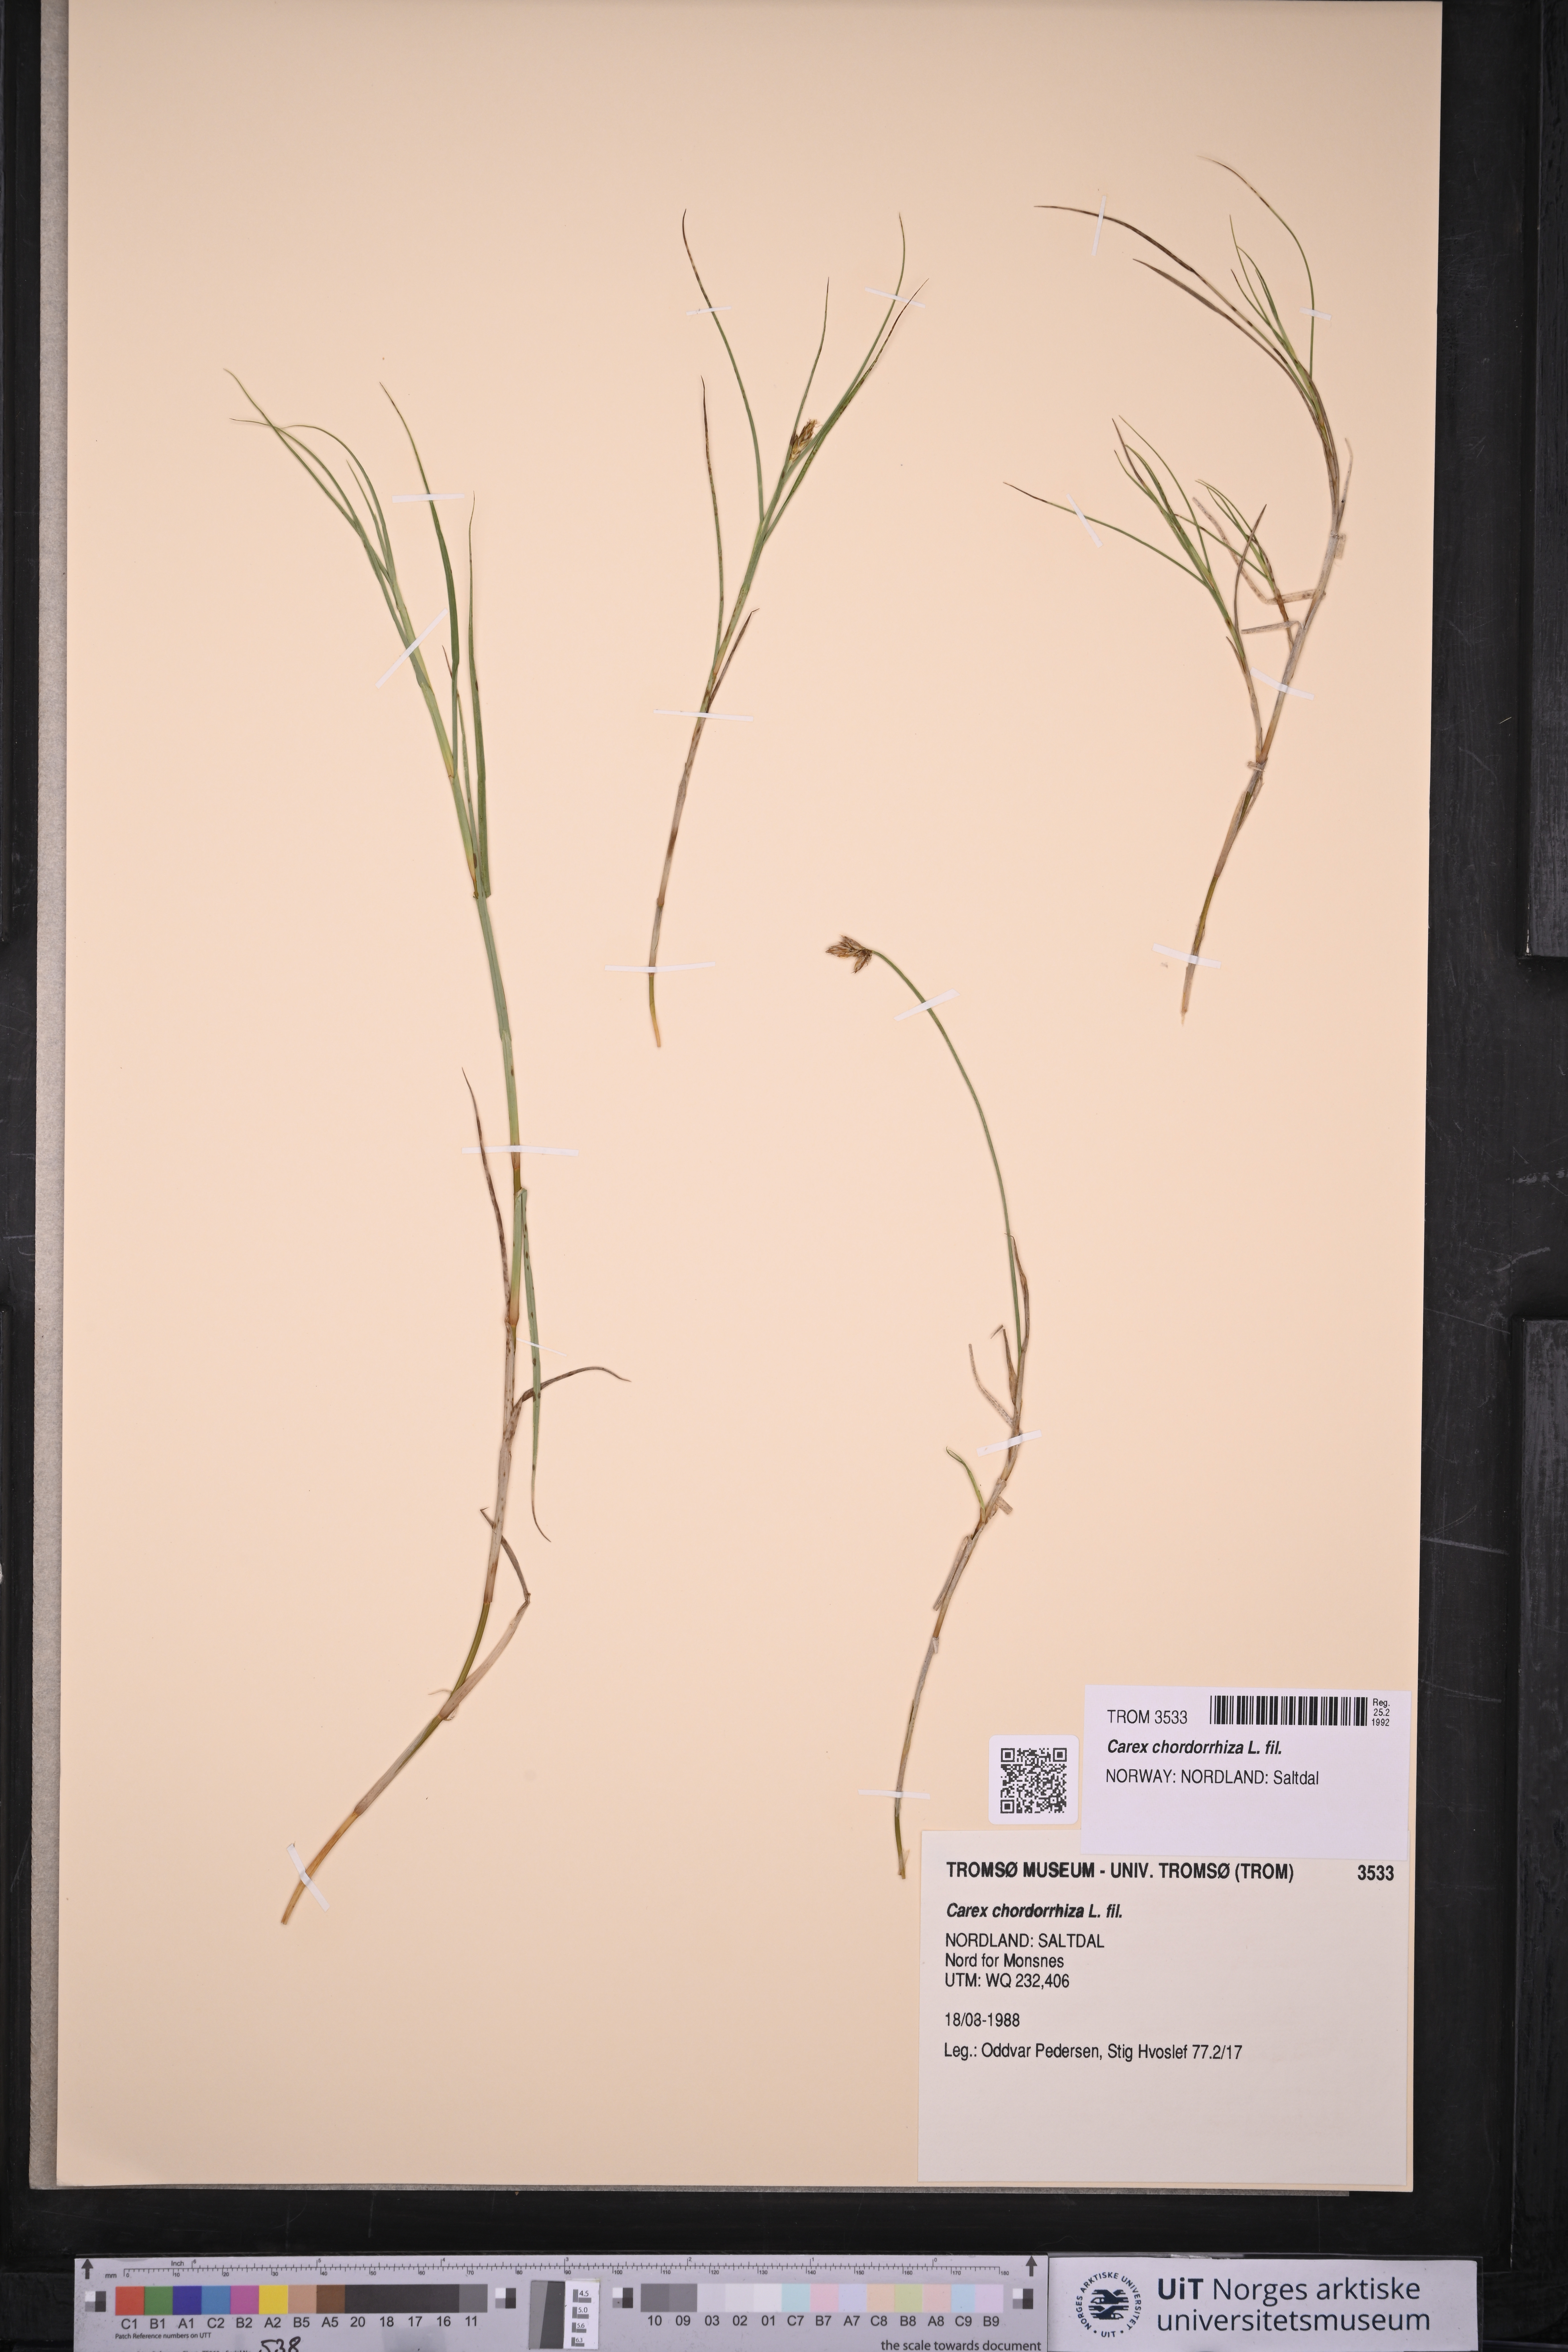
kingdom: Plantae
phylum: Tracheophyta
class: Liliopsida
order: Poales
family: Cyperaceae
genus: Carex
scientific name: Carex chordorrhiza
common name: String sedge
